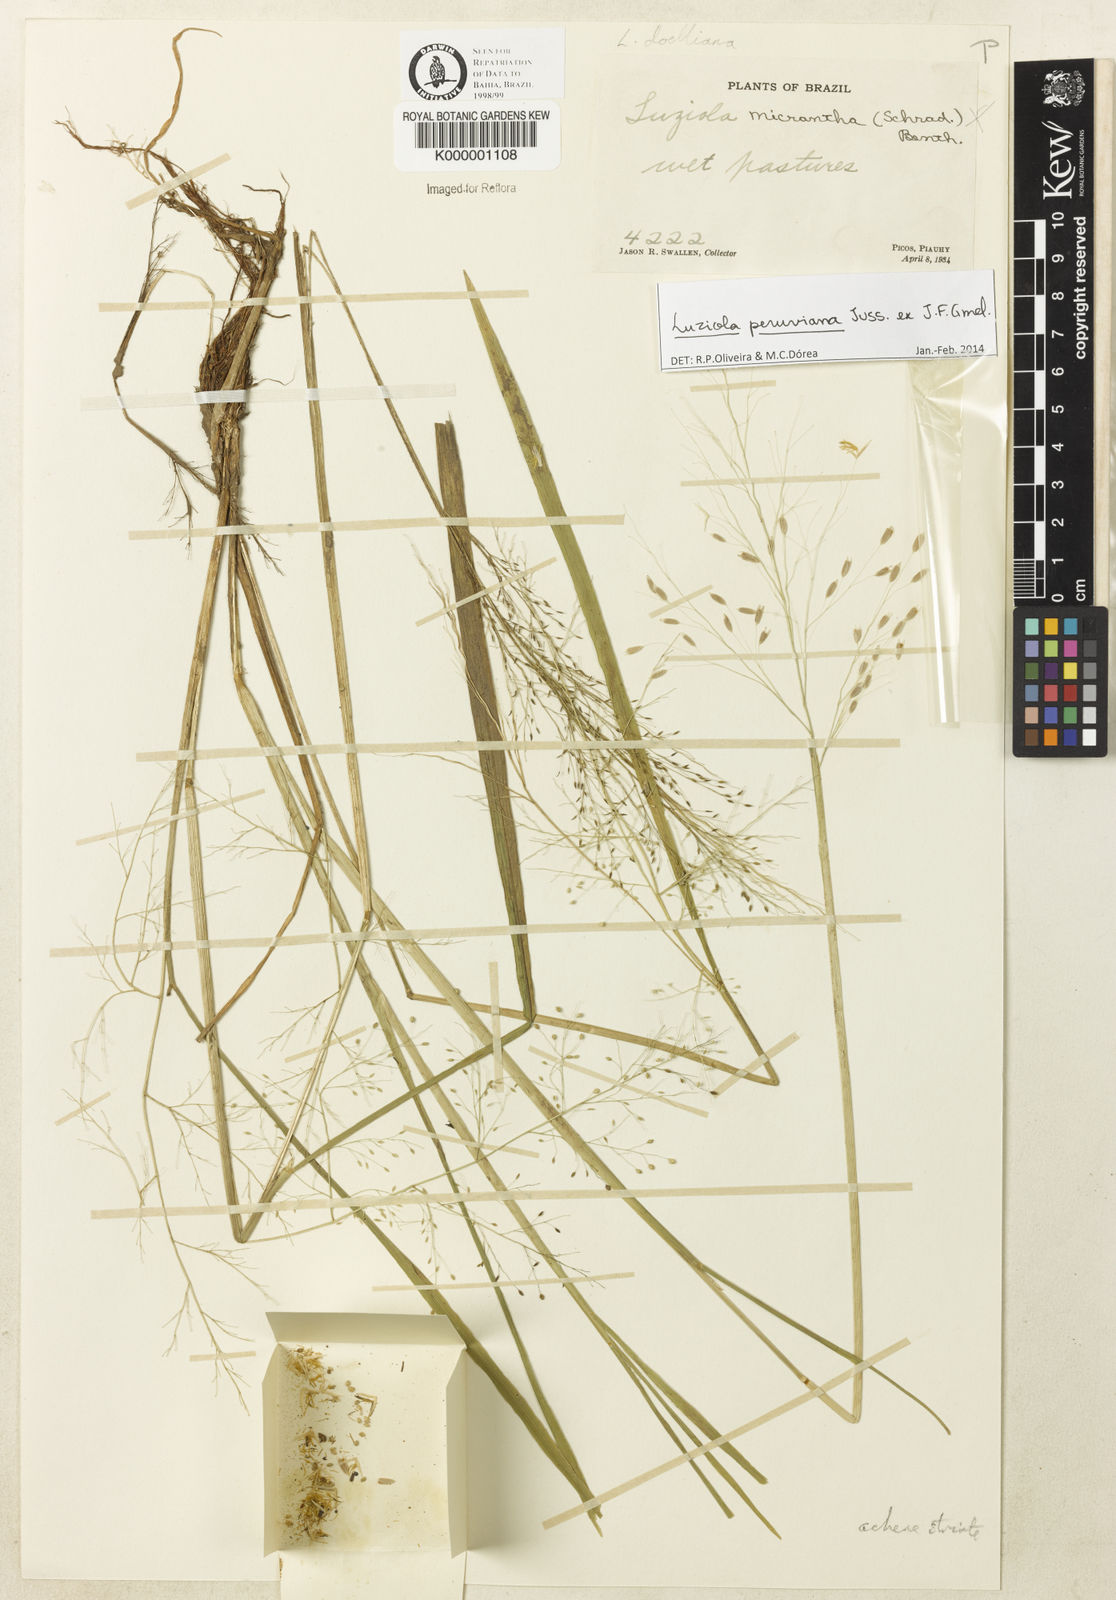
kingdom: Plantae
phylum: Tracheophyta
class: Liliopsida
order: Poales
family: Poaceae
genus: Luziola
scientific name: Luziola brasiliana
